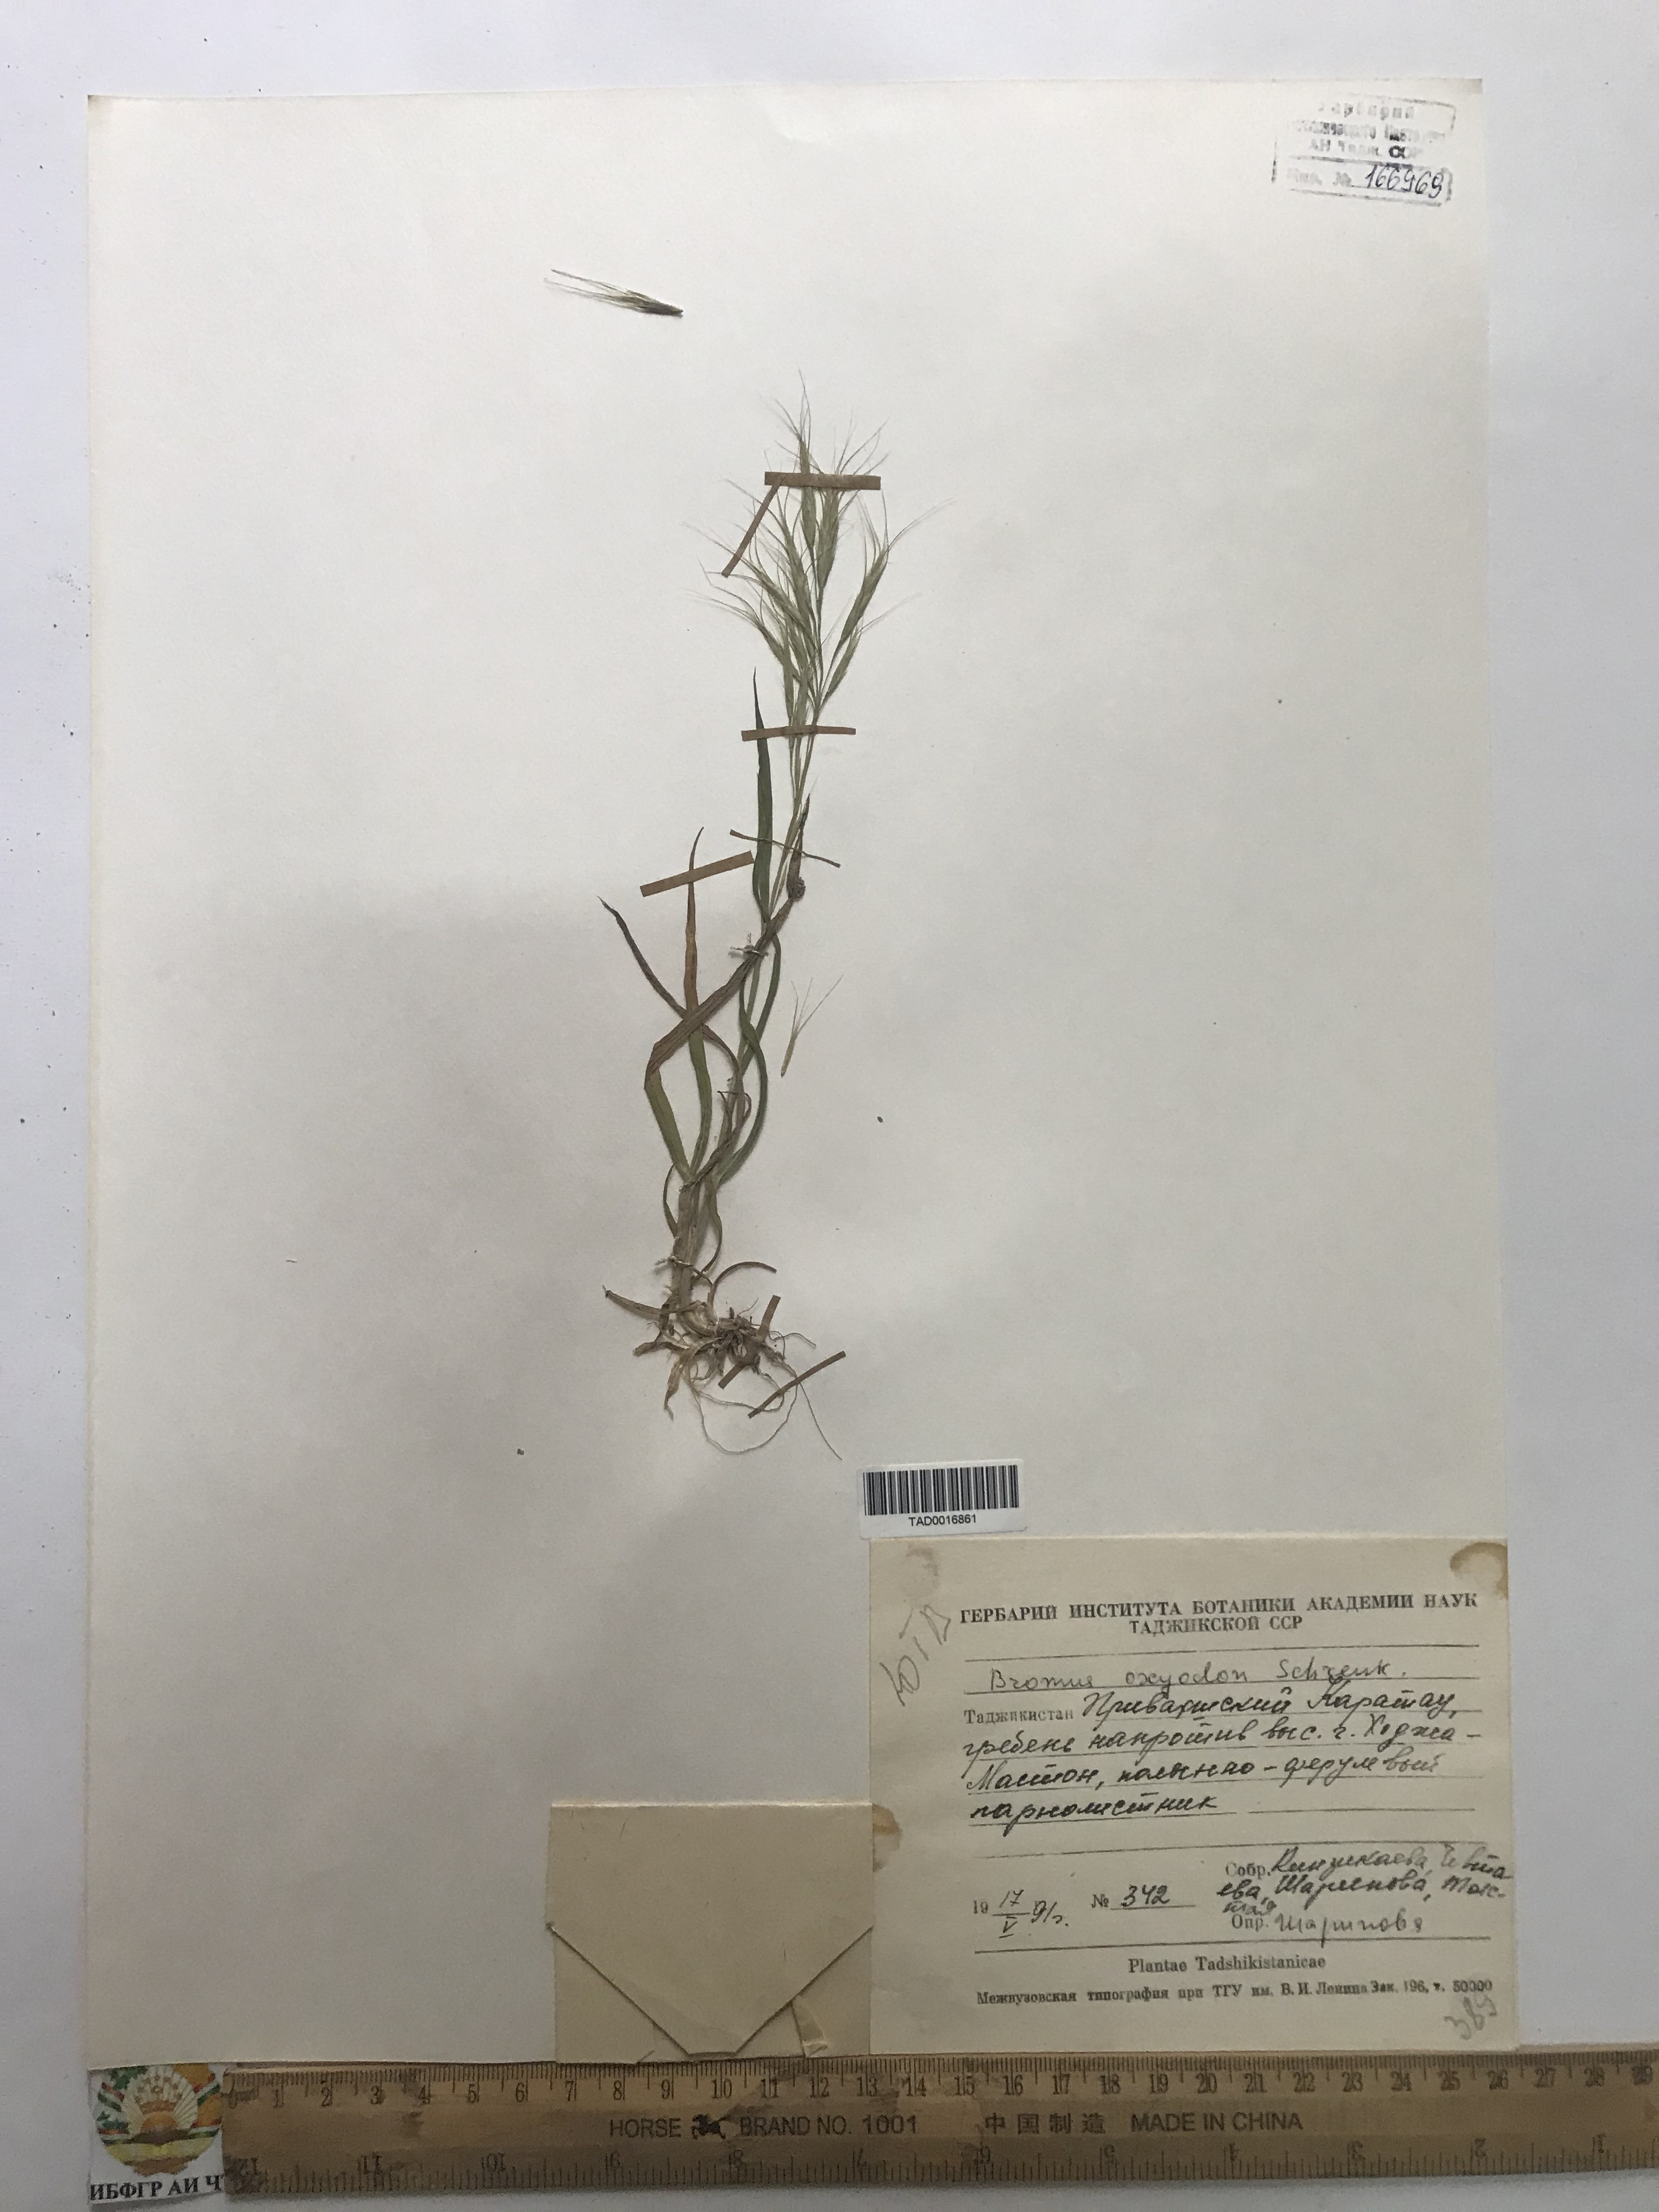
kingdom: Plantae
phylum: Tracheophyta
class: Liliopsida
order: Poales
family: Poaceae
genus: Bromus
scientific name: Bromus oxyodon
